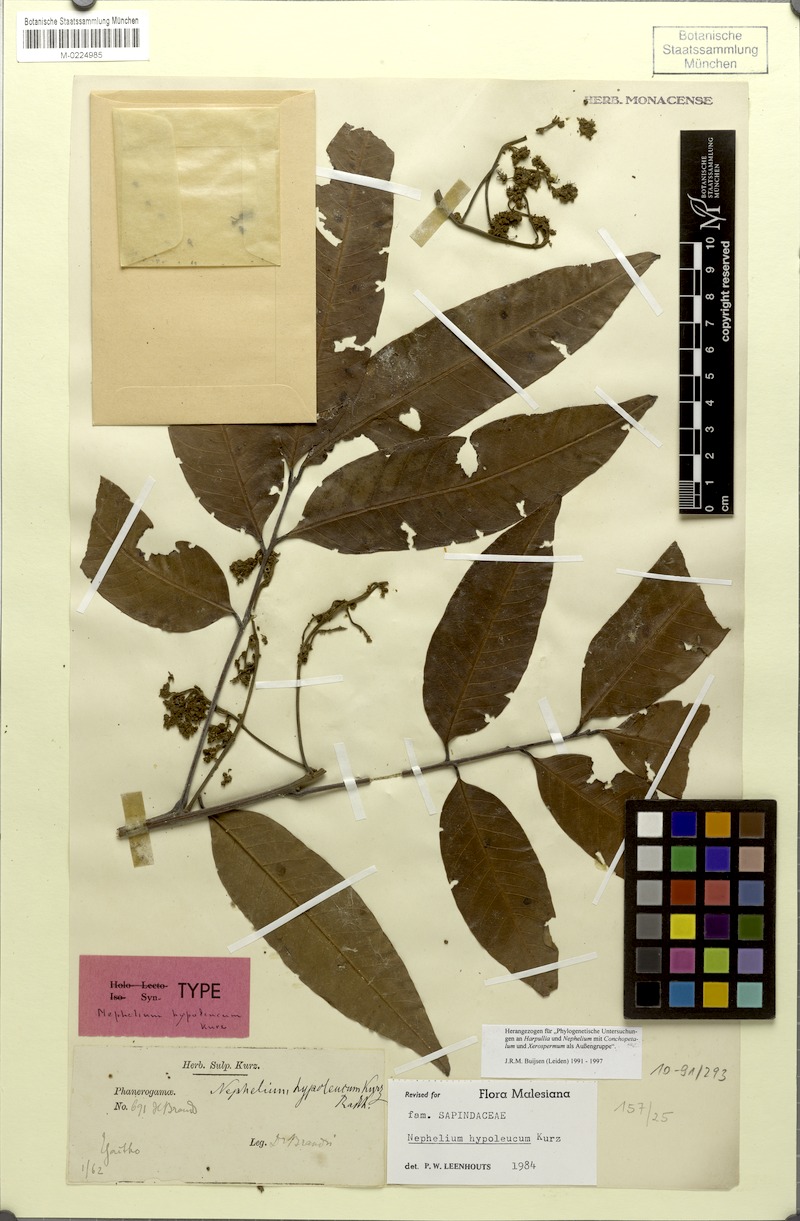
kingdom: Plantae
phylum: Tracheophyta
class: Magnoliopsida
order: Sapindales
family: Sapindaceae
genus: Nephelium
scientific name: Nephelium hypoleucum
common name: Korlan
